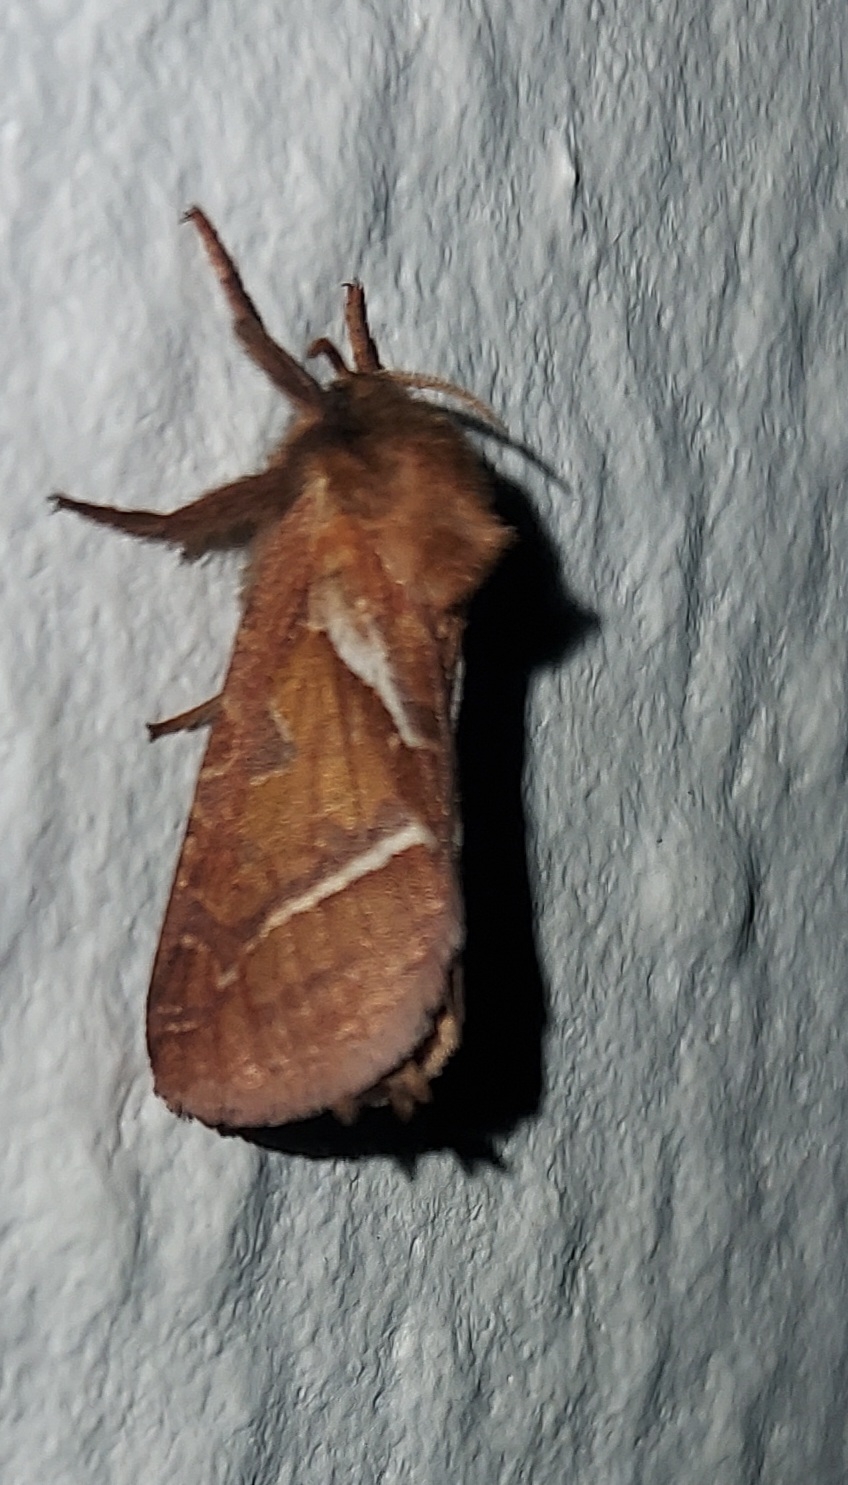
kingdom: Animalia
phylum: Arthropoda
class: Insecta
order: Lepidoptera
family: Hepialidae
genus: Triodia
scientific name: Triodia sylvina
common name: Skræpperodæder
